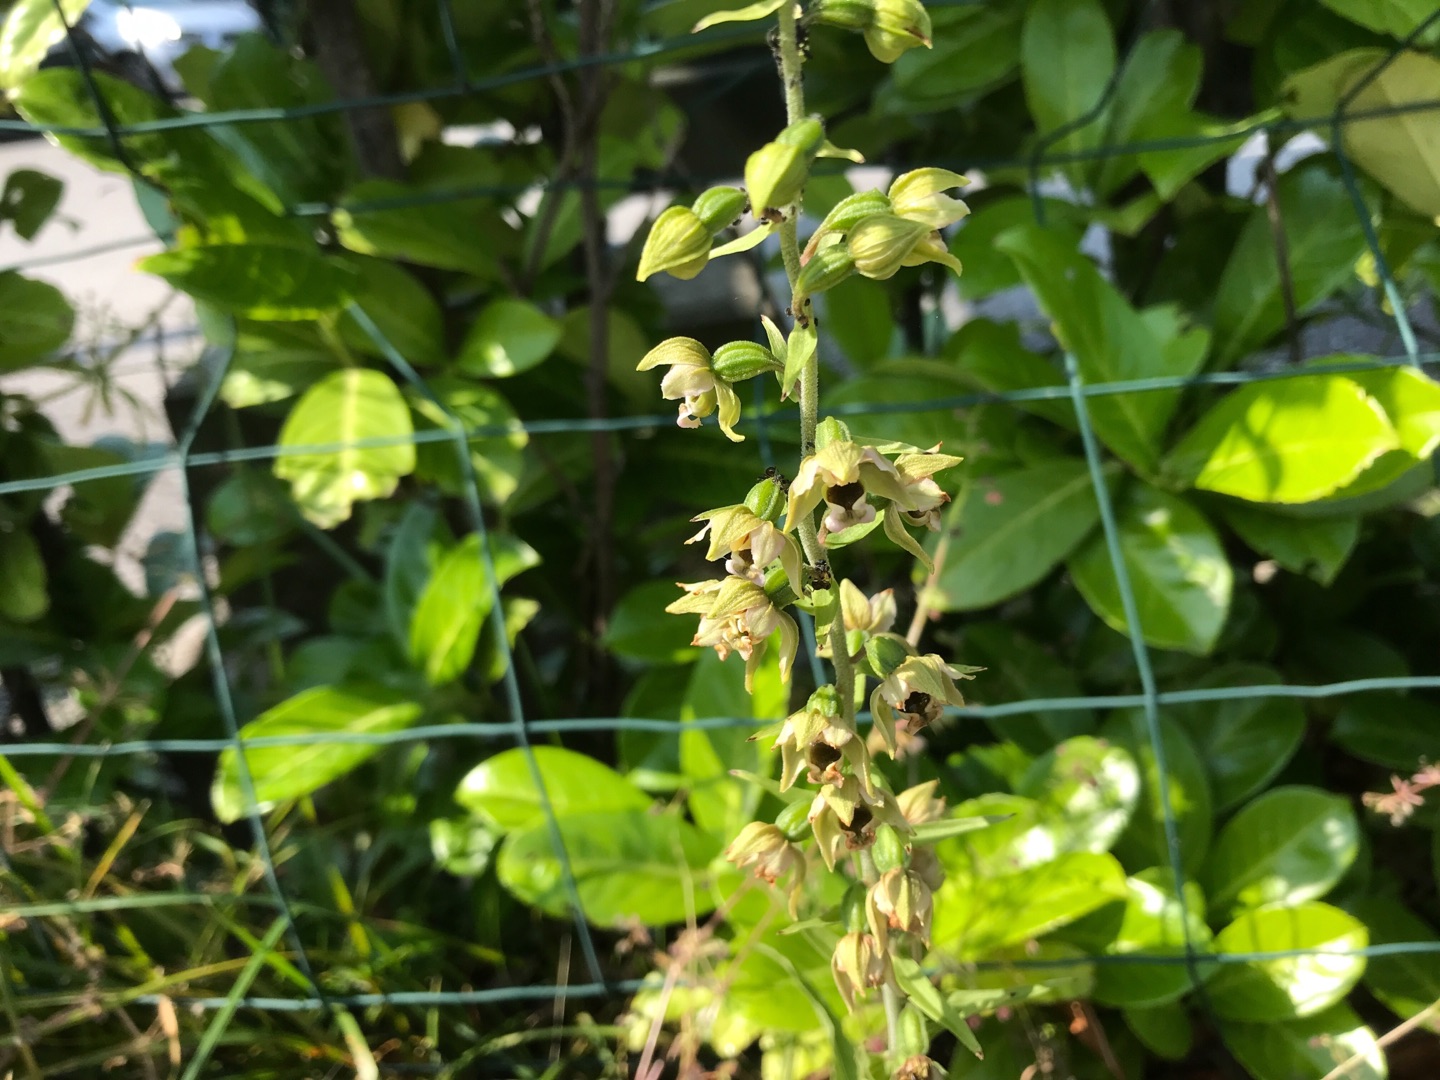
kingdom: Plantae
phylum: Tracheophyta
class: Liliopsida
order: Asparagales
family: Orchidaceae
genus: Epipactis
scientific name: Epipactis helleborine
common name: Skov-hullæbe
